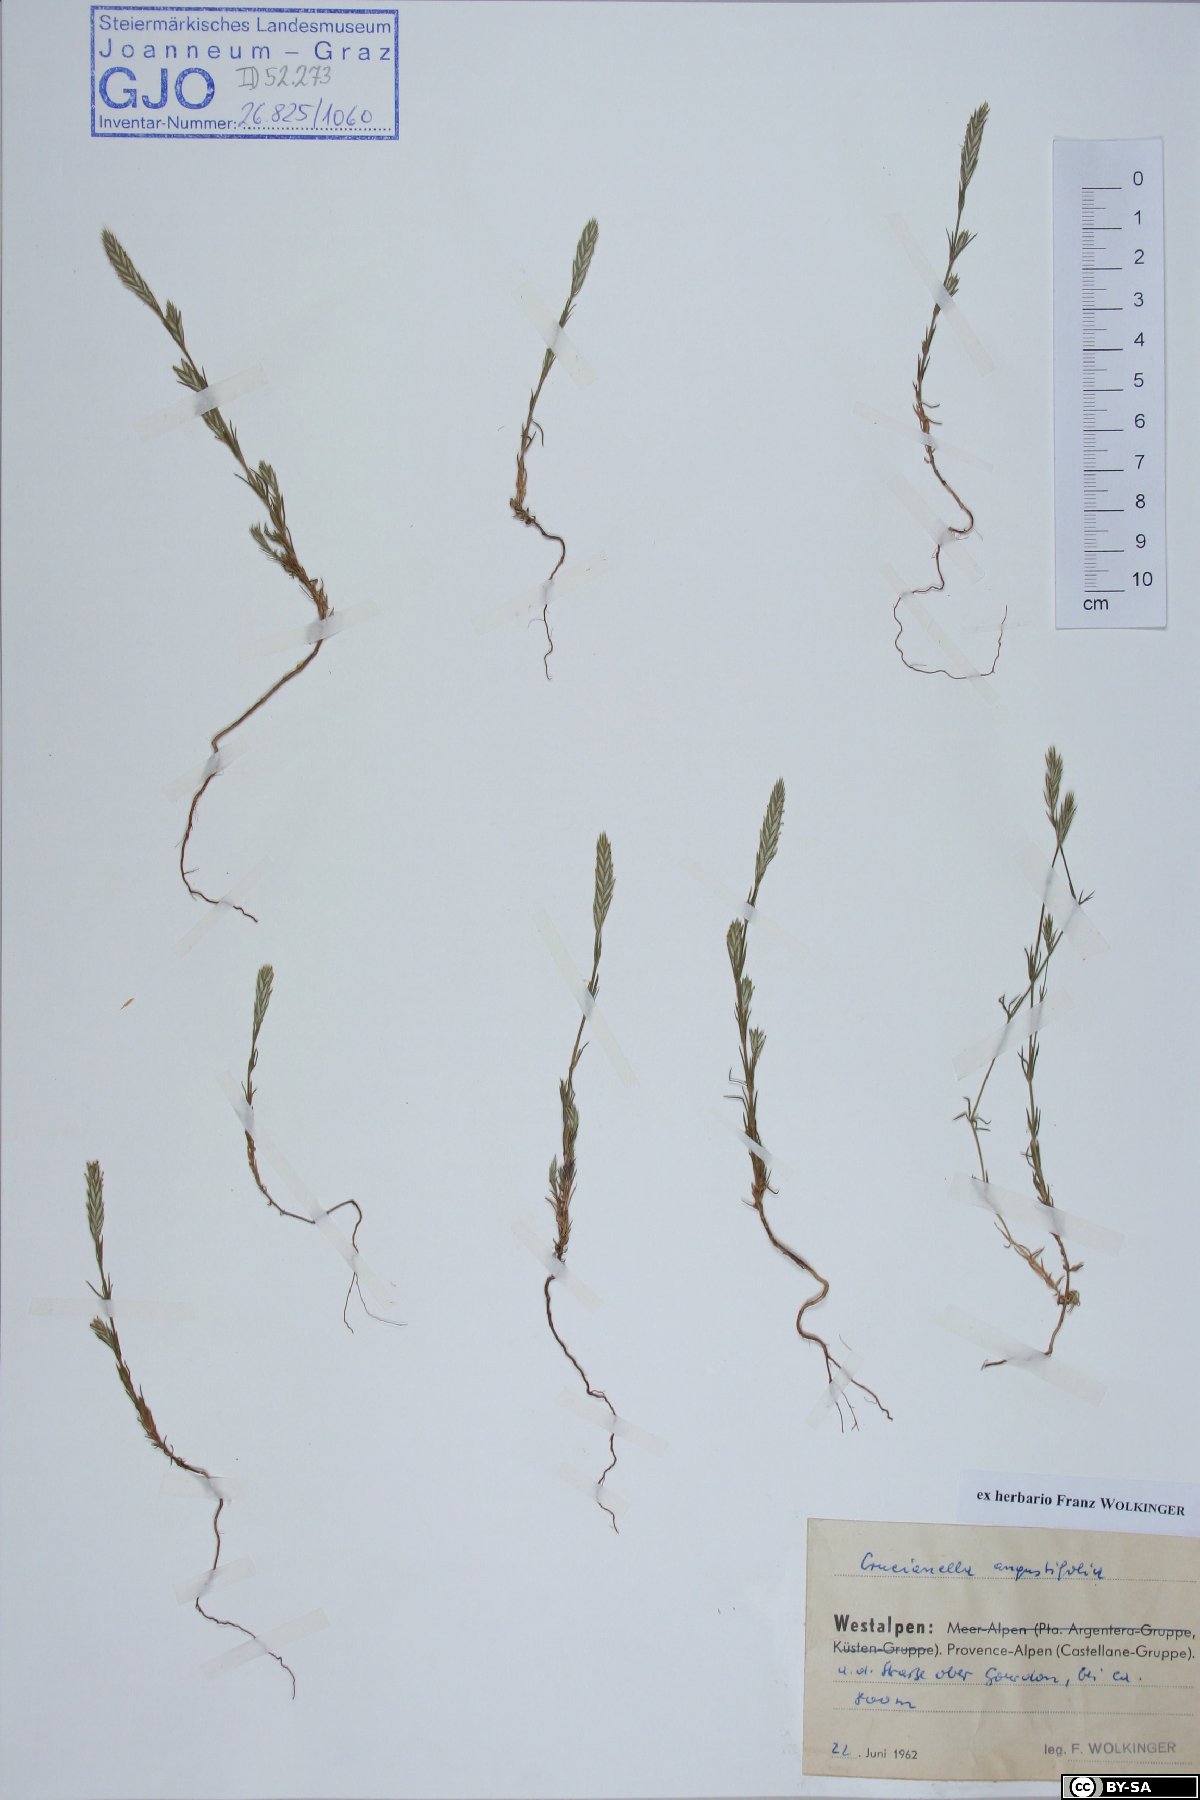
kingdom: Plantae
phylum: Tracheophyta
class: Magnoliopsida
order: Gentianales
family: Rubiaceae
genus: Crucianella
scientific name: Crucianella angustifolia
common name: Narrowleaf crucianella
